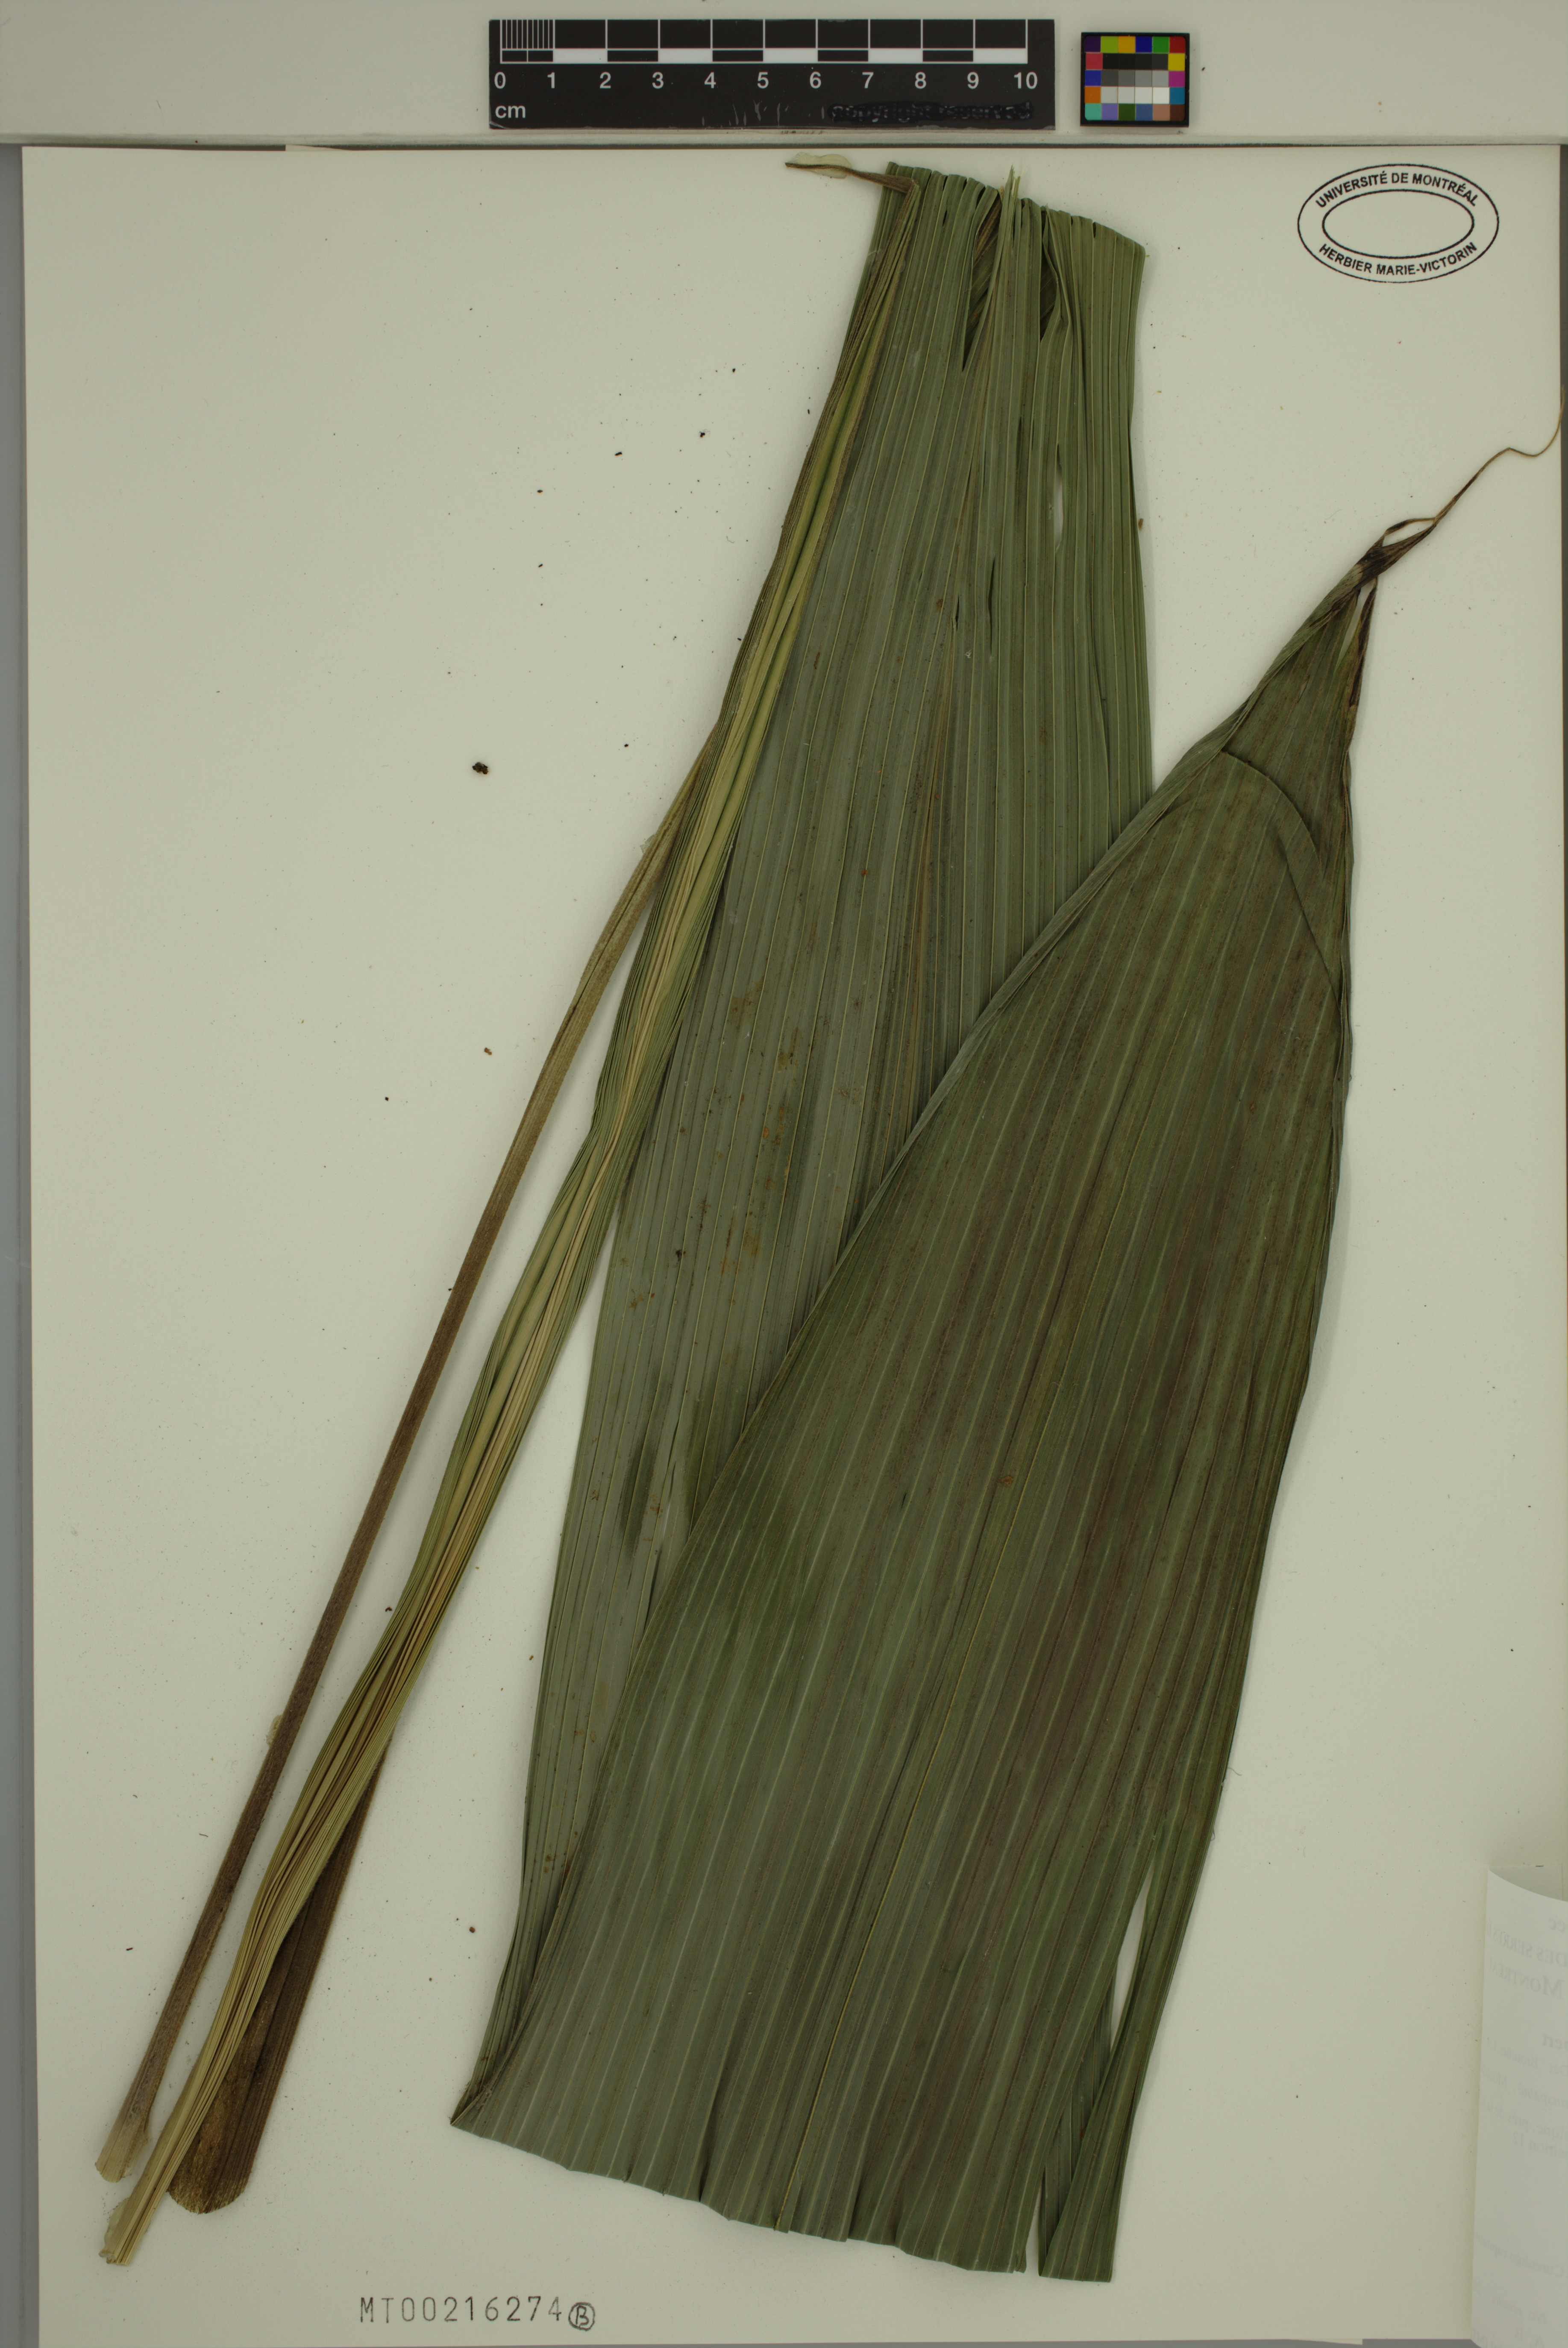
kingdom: Plantae
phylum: Tracheophyta
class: Liliopsida
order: Asparagales
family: Hypoxidaceae
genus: Curculigo
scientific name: Curculigo capitulata
